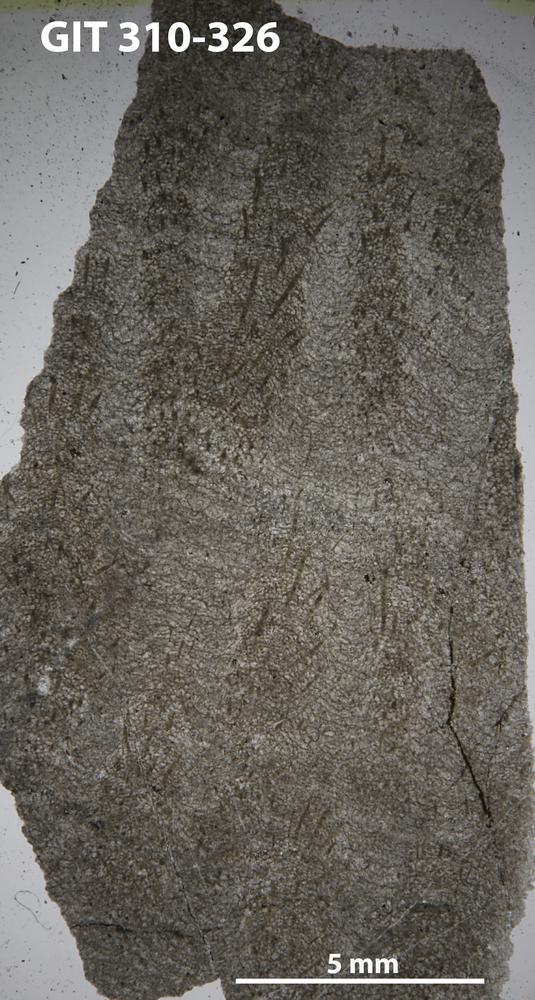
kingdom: Animalia
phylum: Porifera
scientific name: Porifera
